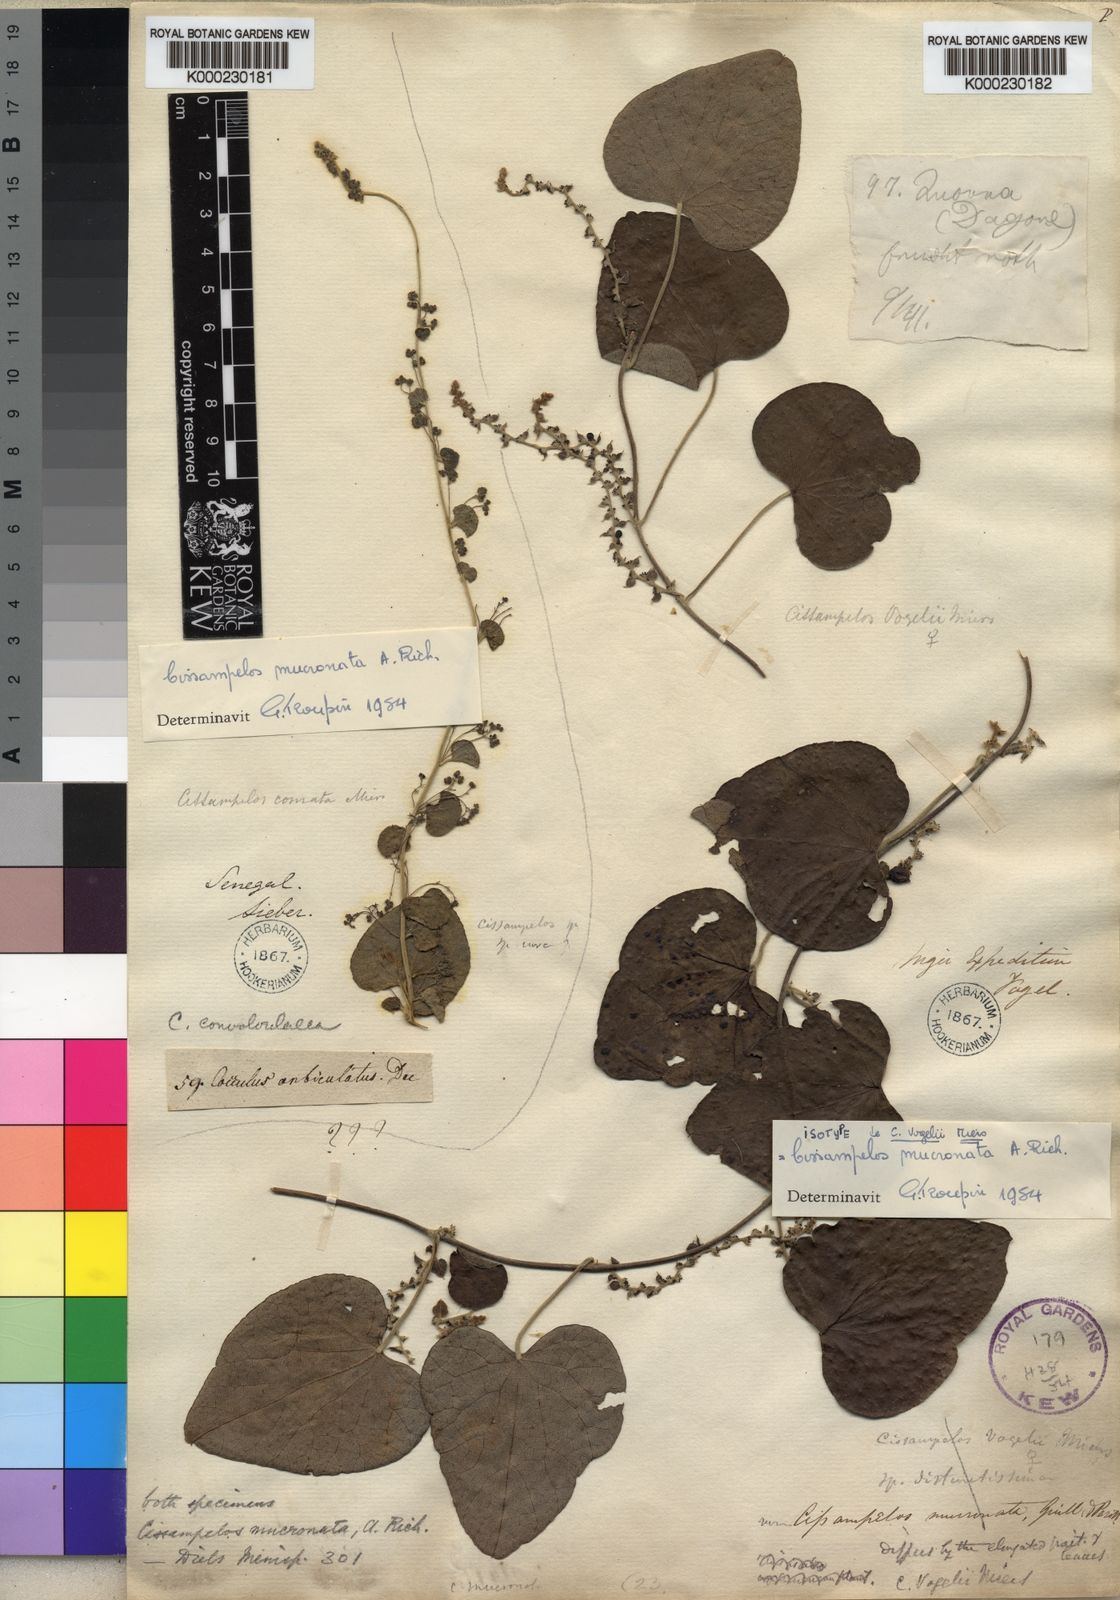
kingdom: Plantae
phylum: Tracheophyta
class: Magnoliopsida
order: Ranunculales
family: Menispermaceae
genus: Cissampelos
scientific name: Cissampelos mucronata
